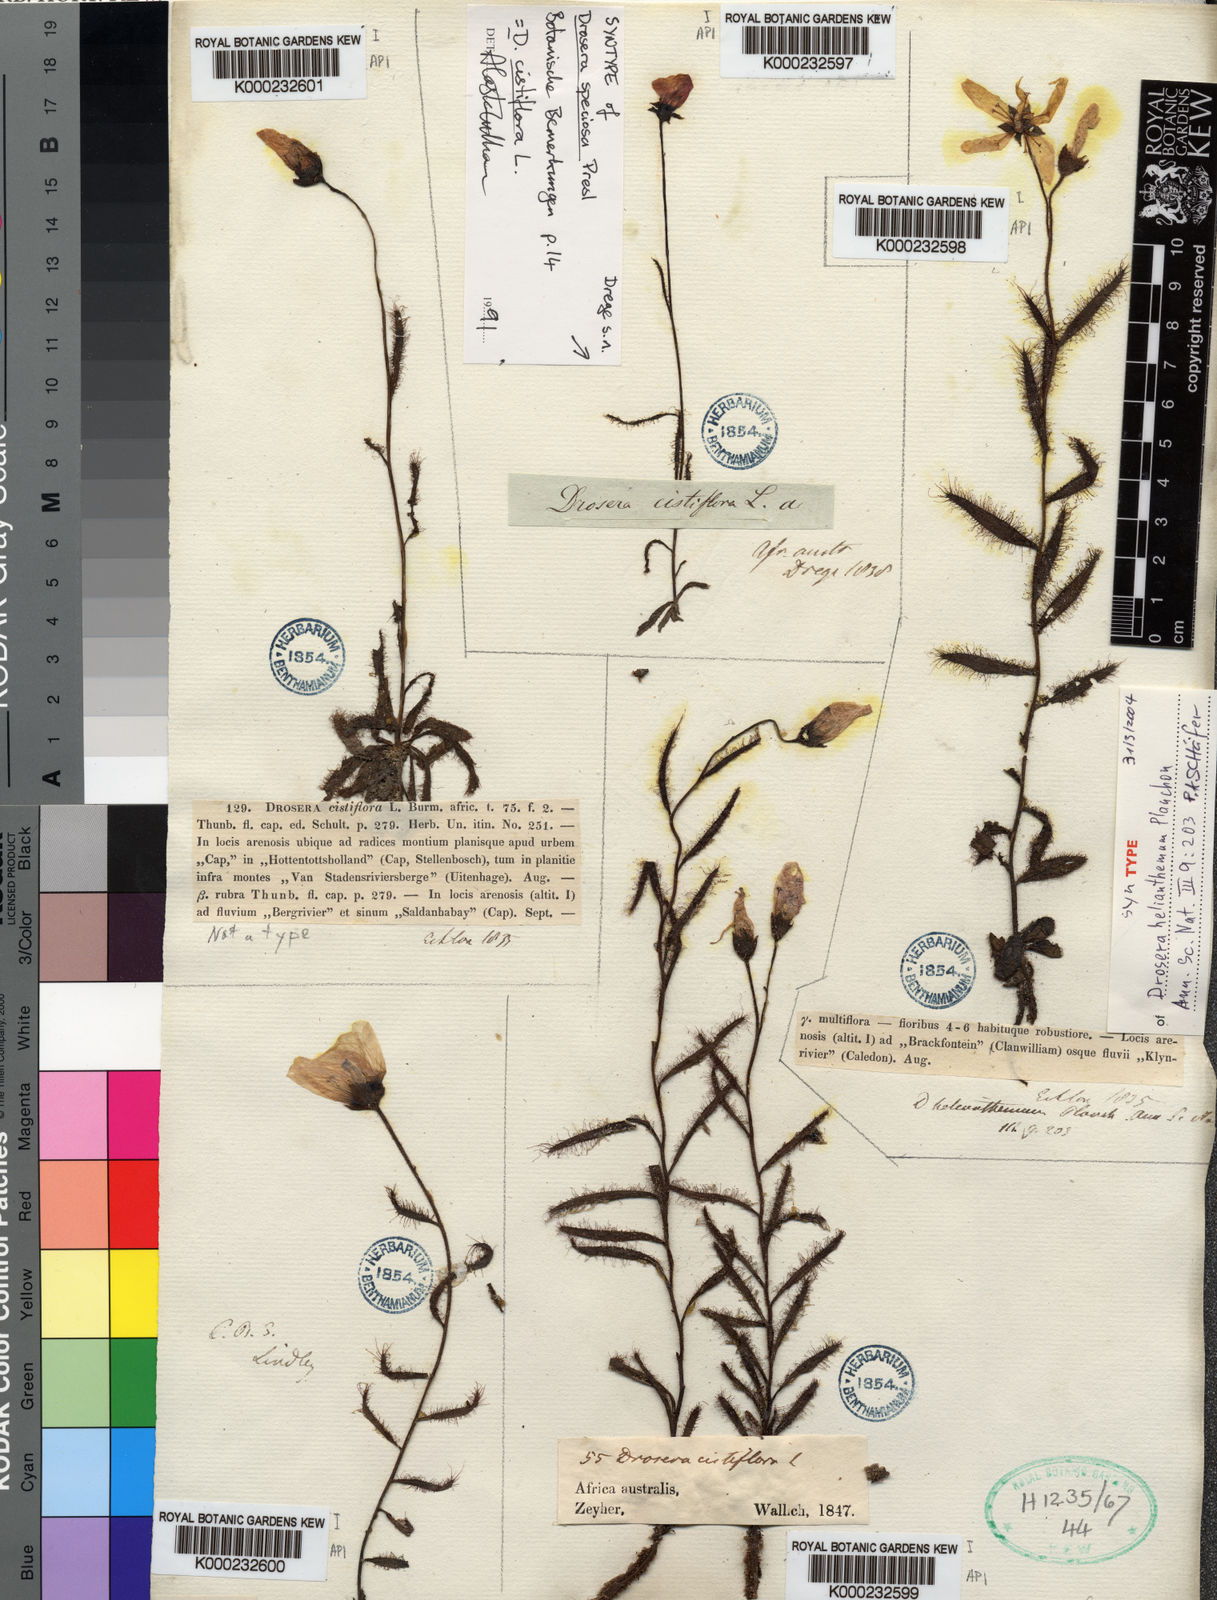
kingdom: Plantae
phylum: Tracheophyta
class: Magnoliopsida
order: Caryophyllales
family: Droseraceae
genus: Drosera
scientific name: Drosera cistiflora
